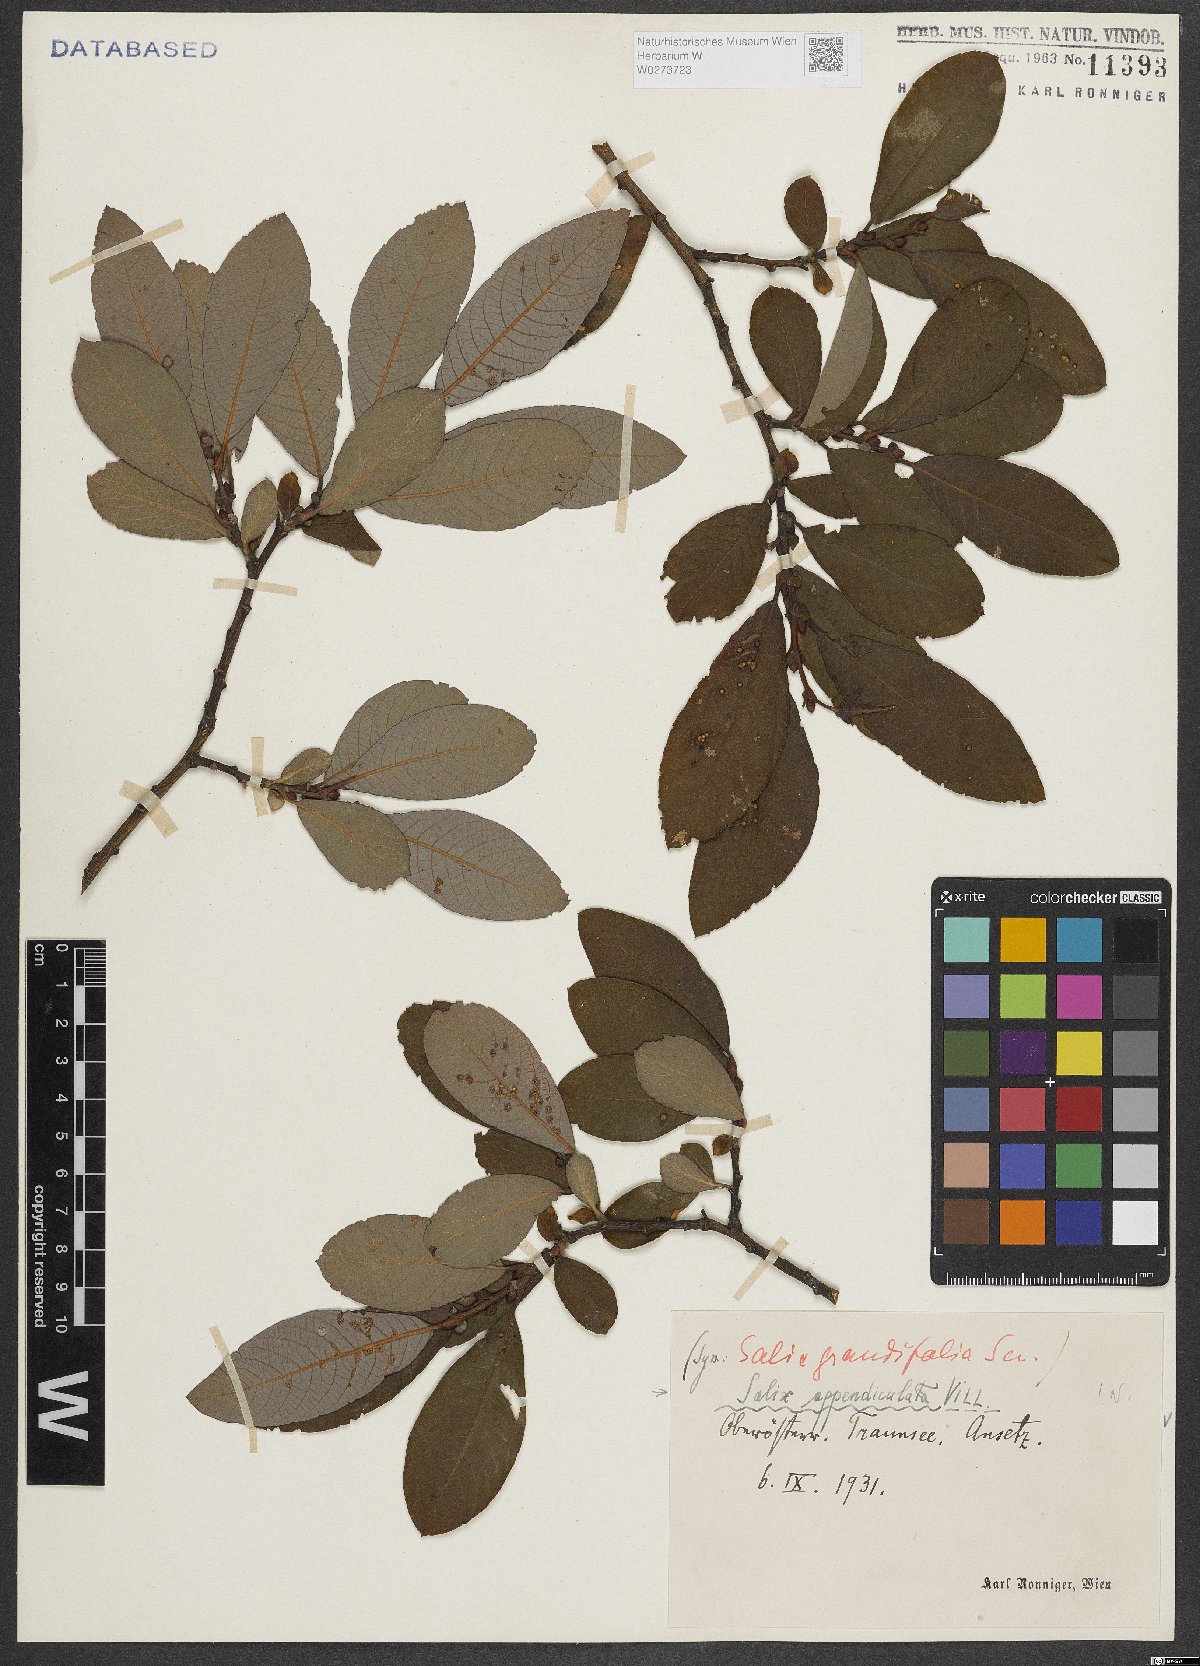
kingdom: Plantae
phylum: Tracheophyta
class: Magnoliopsida
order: Malpighiales
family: Salicaceae
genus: Salix
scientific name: Salix appendiculata
